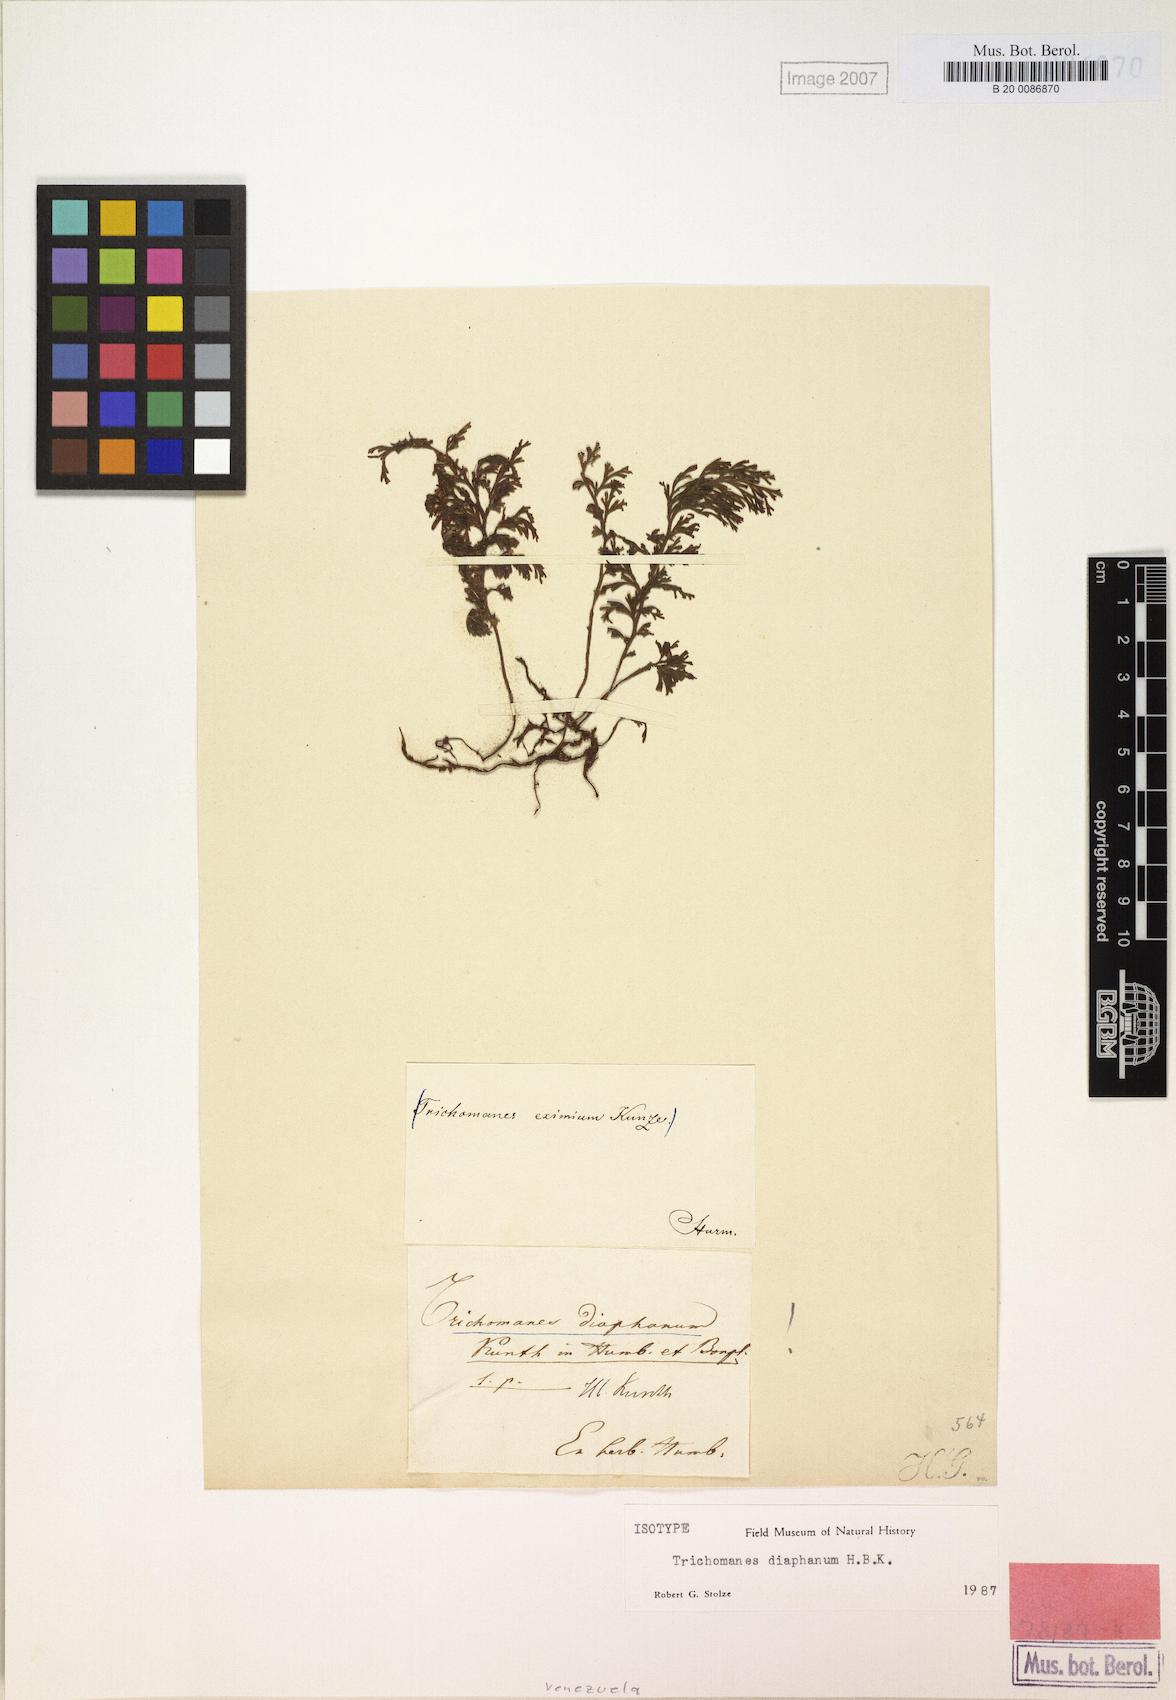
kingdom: Plantae
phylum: Tracheophyta
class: Polypodiopsida
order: Hymenophyllales
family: Hymenophyllaceae
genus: Polyphlebium
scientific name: Polyphlebium diaphanum
